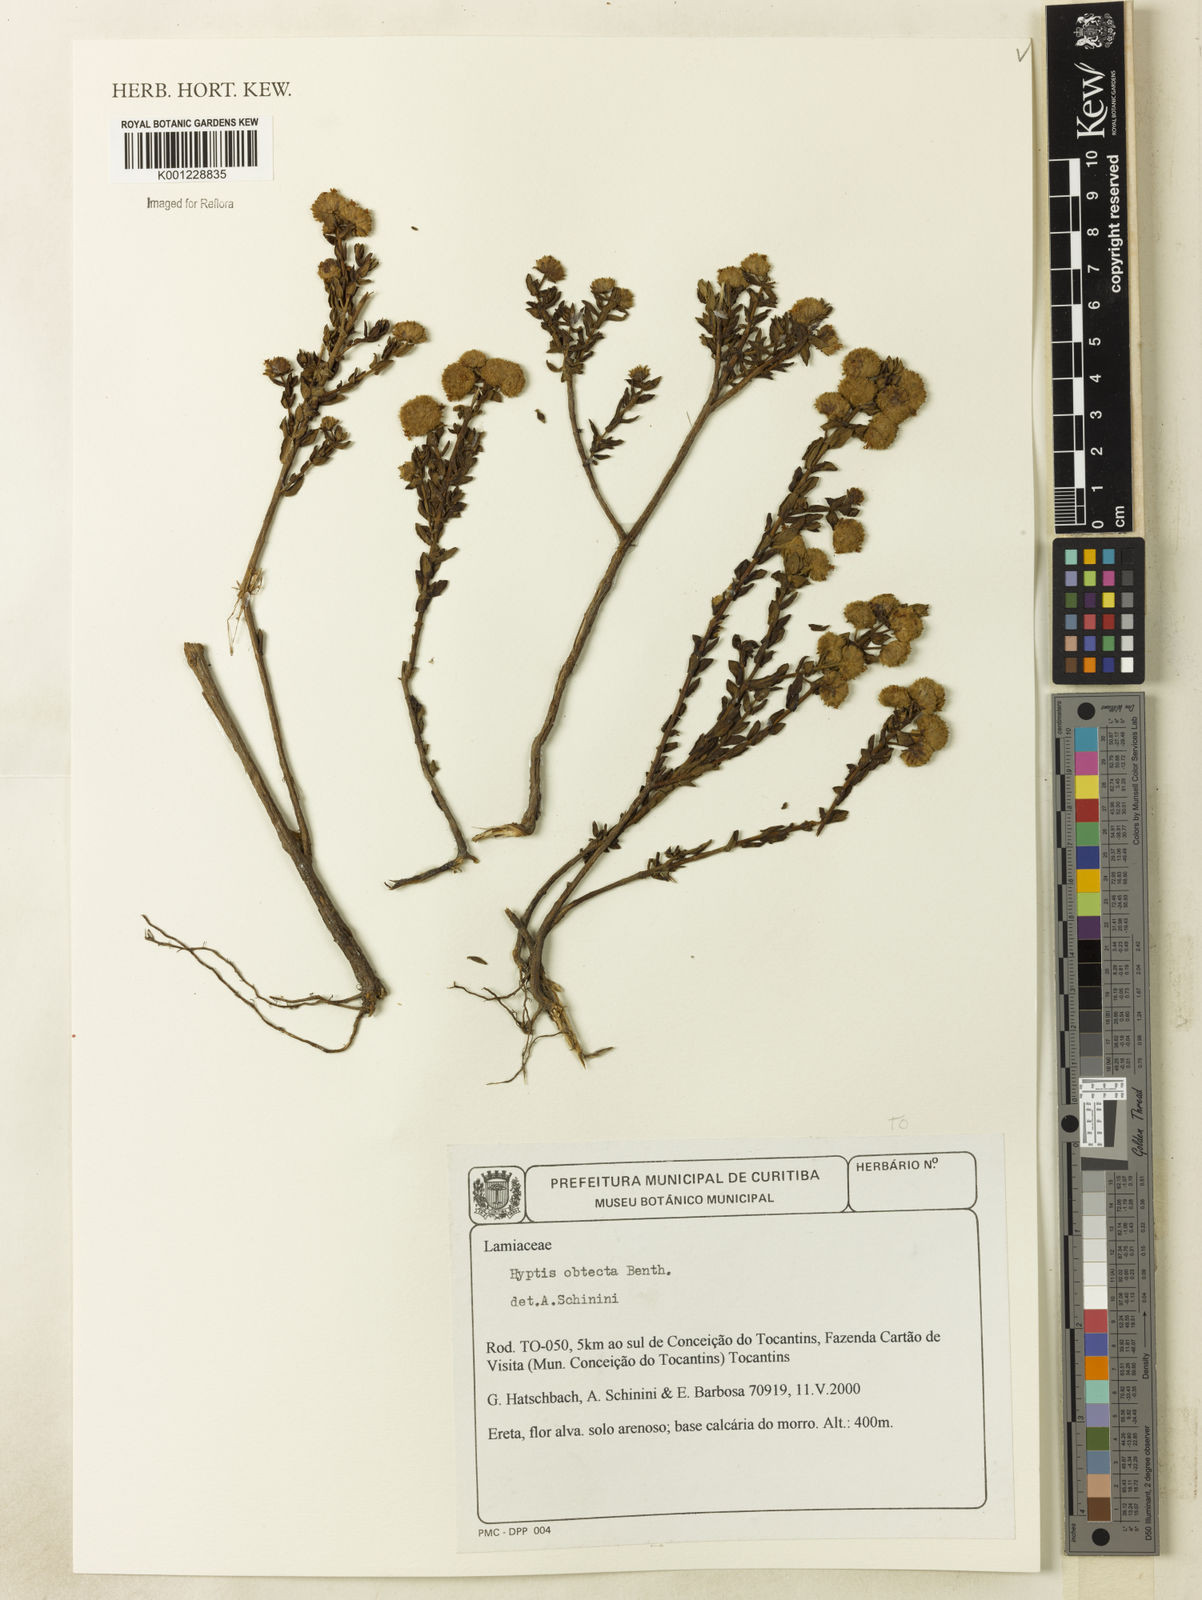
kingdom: Plantae
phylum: Tracheophyta
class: Magnoliopsida
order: Lamiales
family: Lamiaceae
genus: Hyptis
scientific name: Hyptis obtecta
